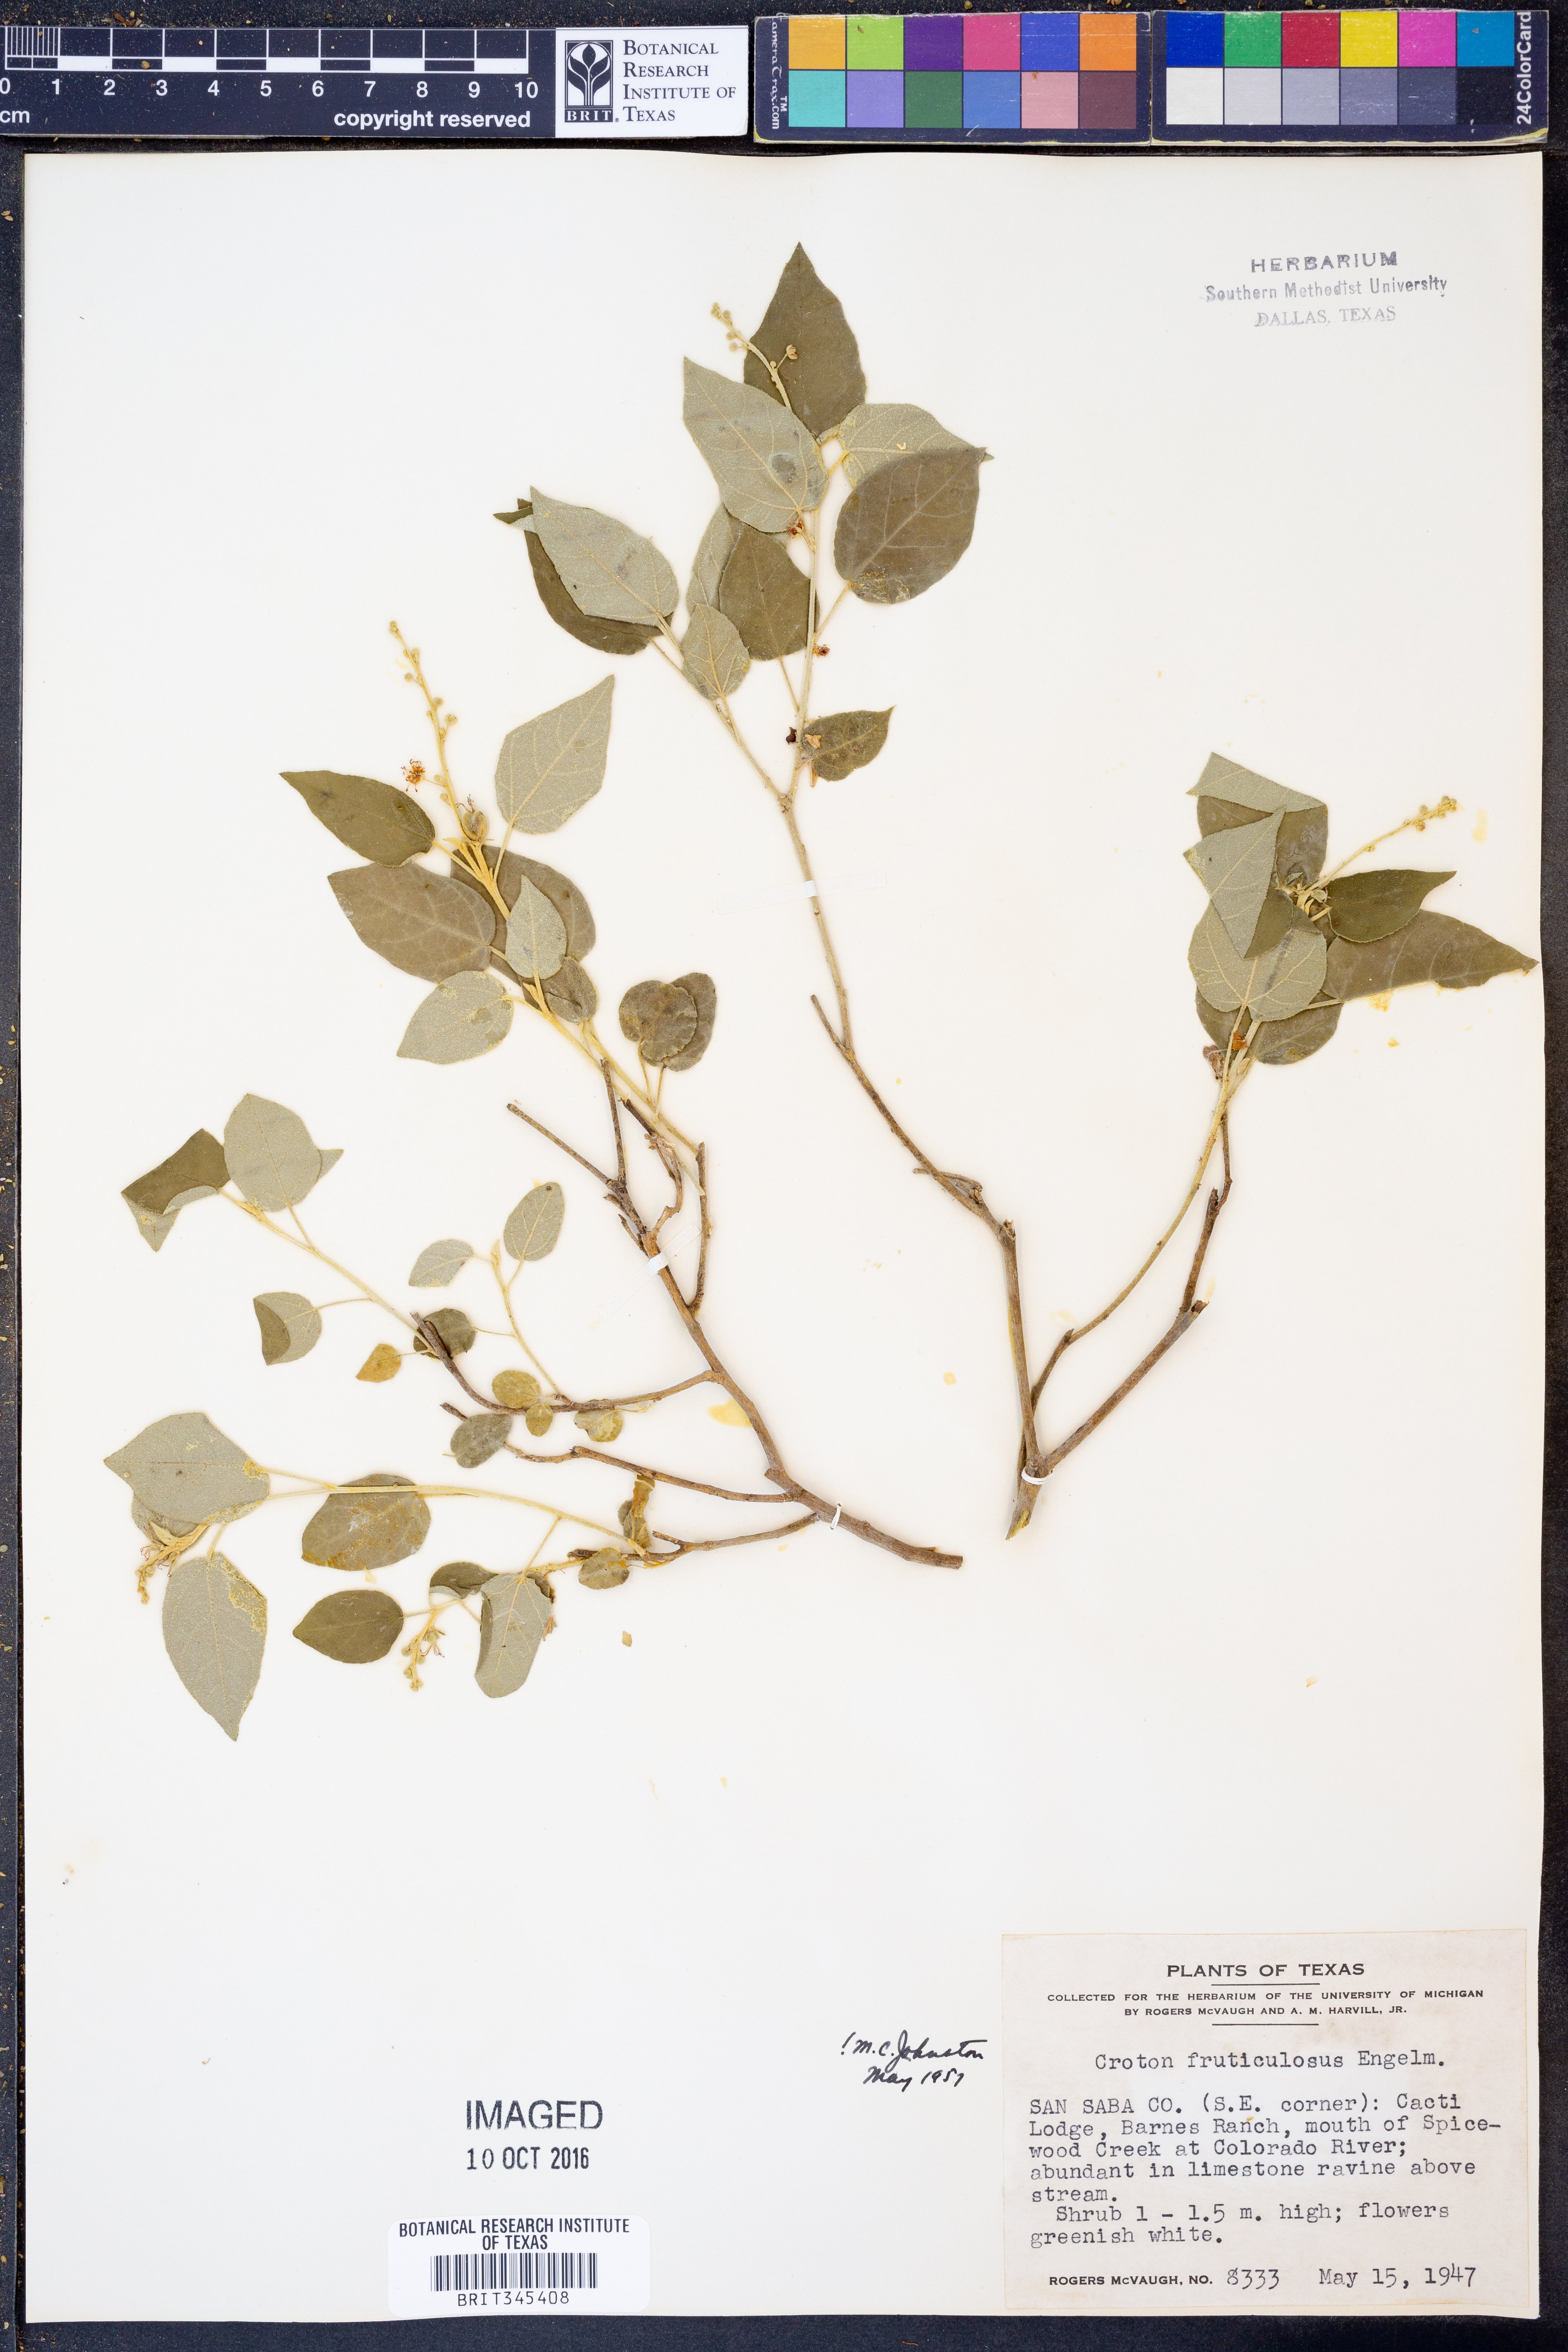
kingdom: Plantae
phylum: Tracheophyta
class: Magnoliopsida
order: Malpighiales
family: Euphorbiaceae
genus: Croton
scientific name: Croton fruticulosus
